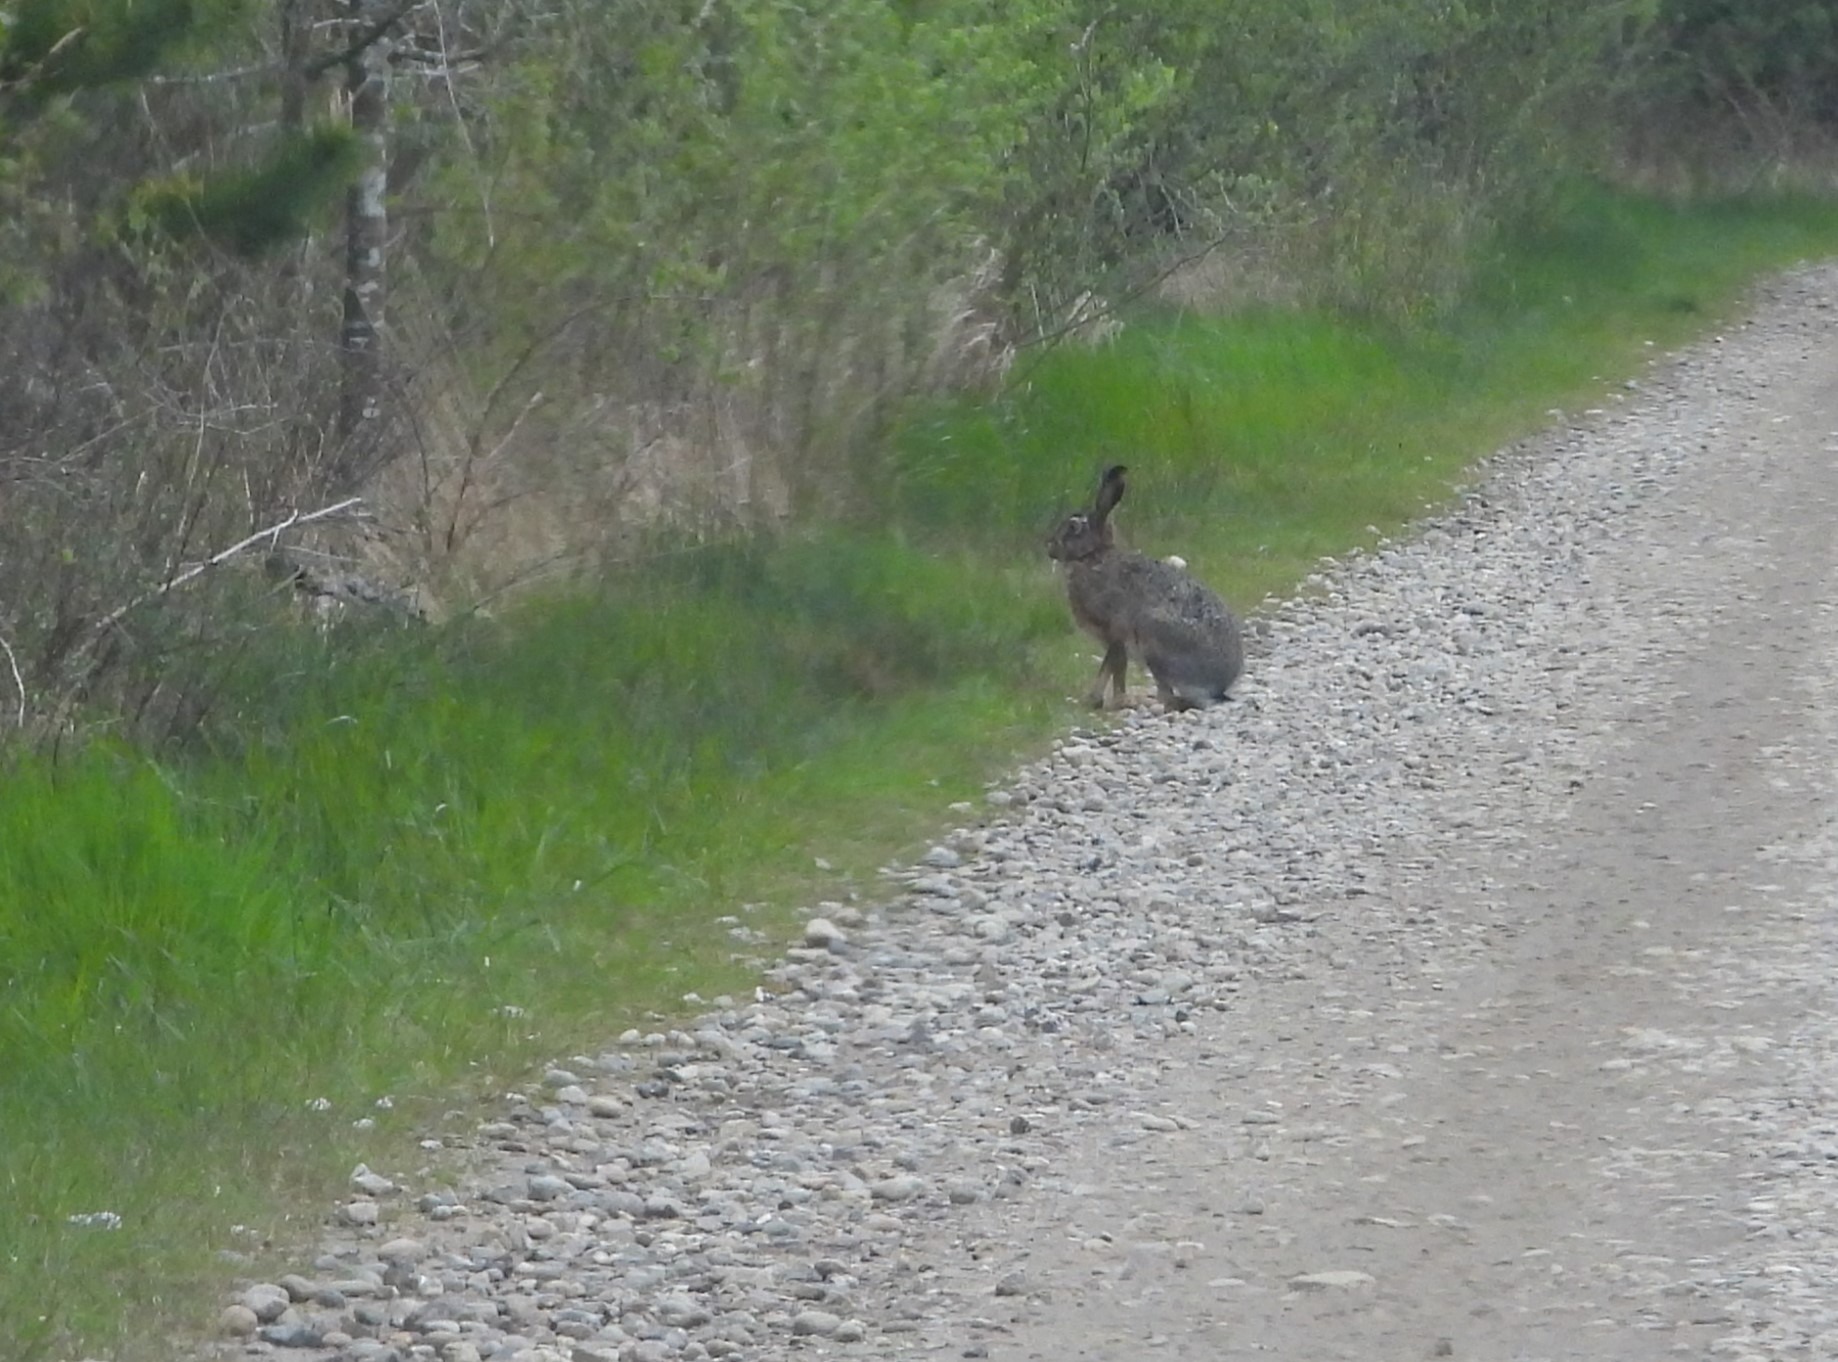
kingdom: Animalia
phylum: Chordata
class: Mammalia
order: Lagomorpha
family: Leporidae
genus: Lepus
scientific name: Lepus europaeus
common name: Hare
